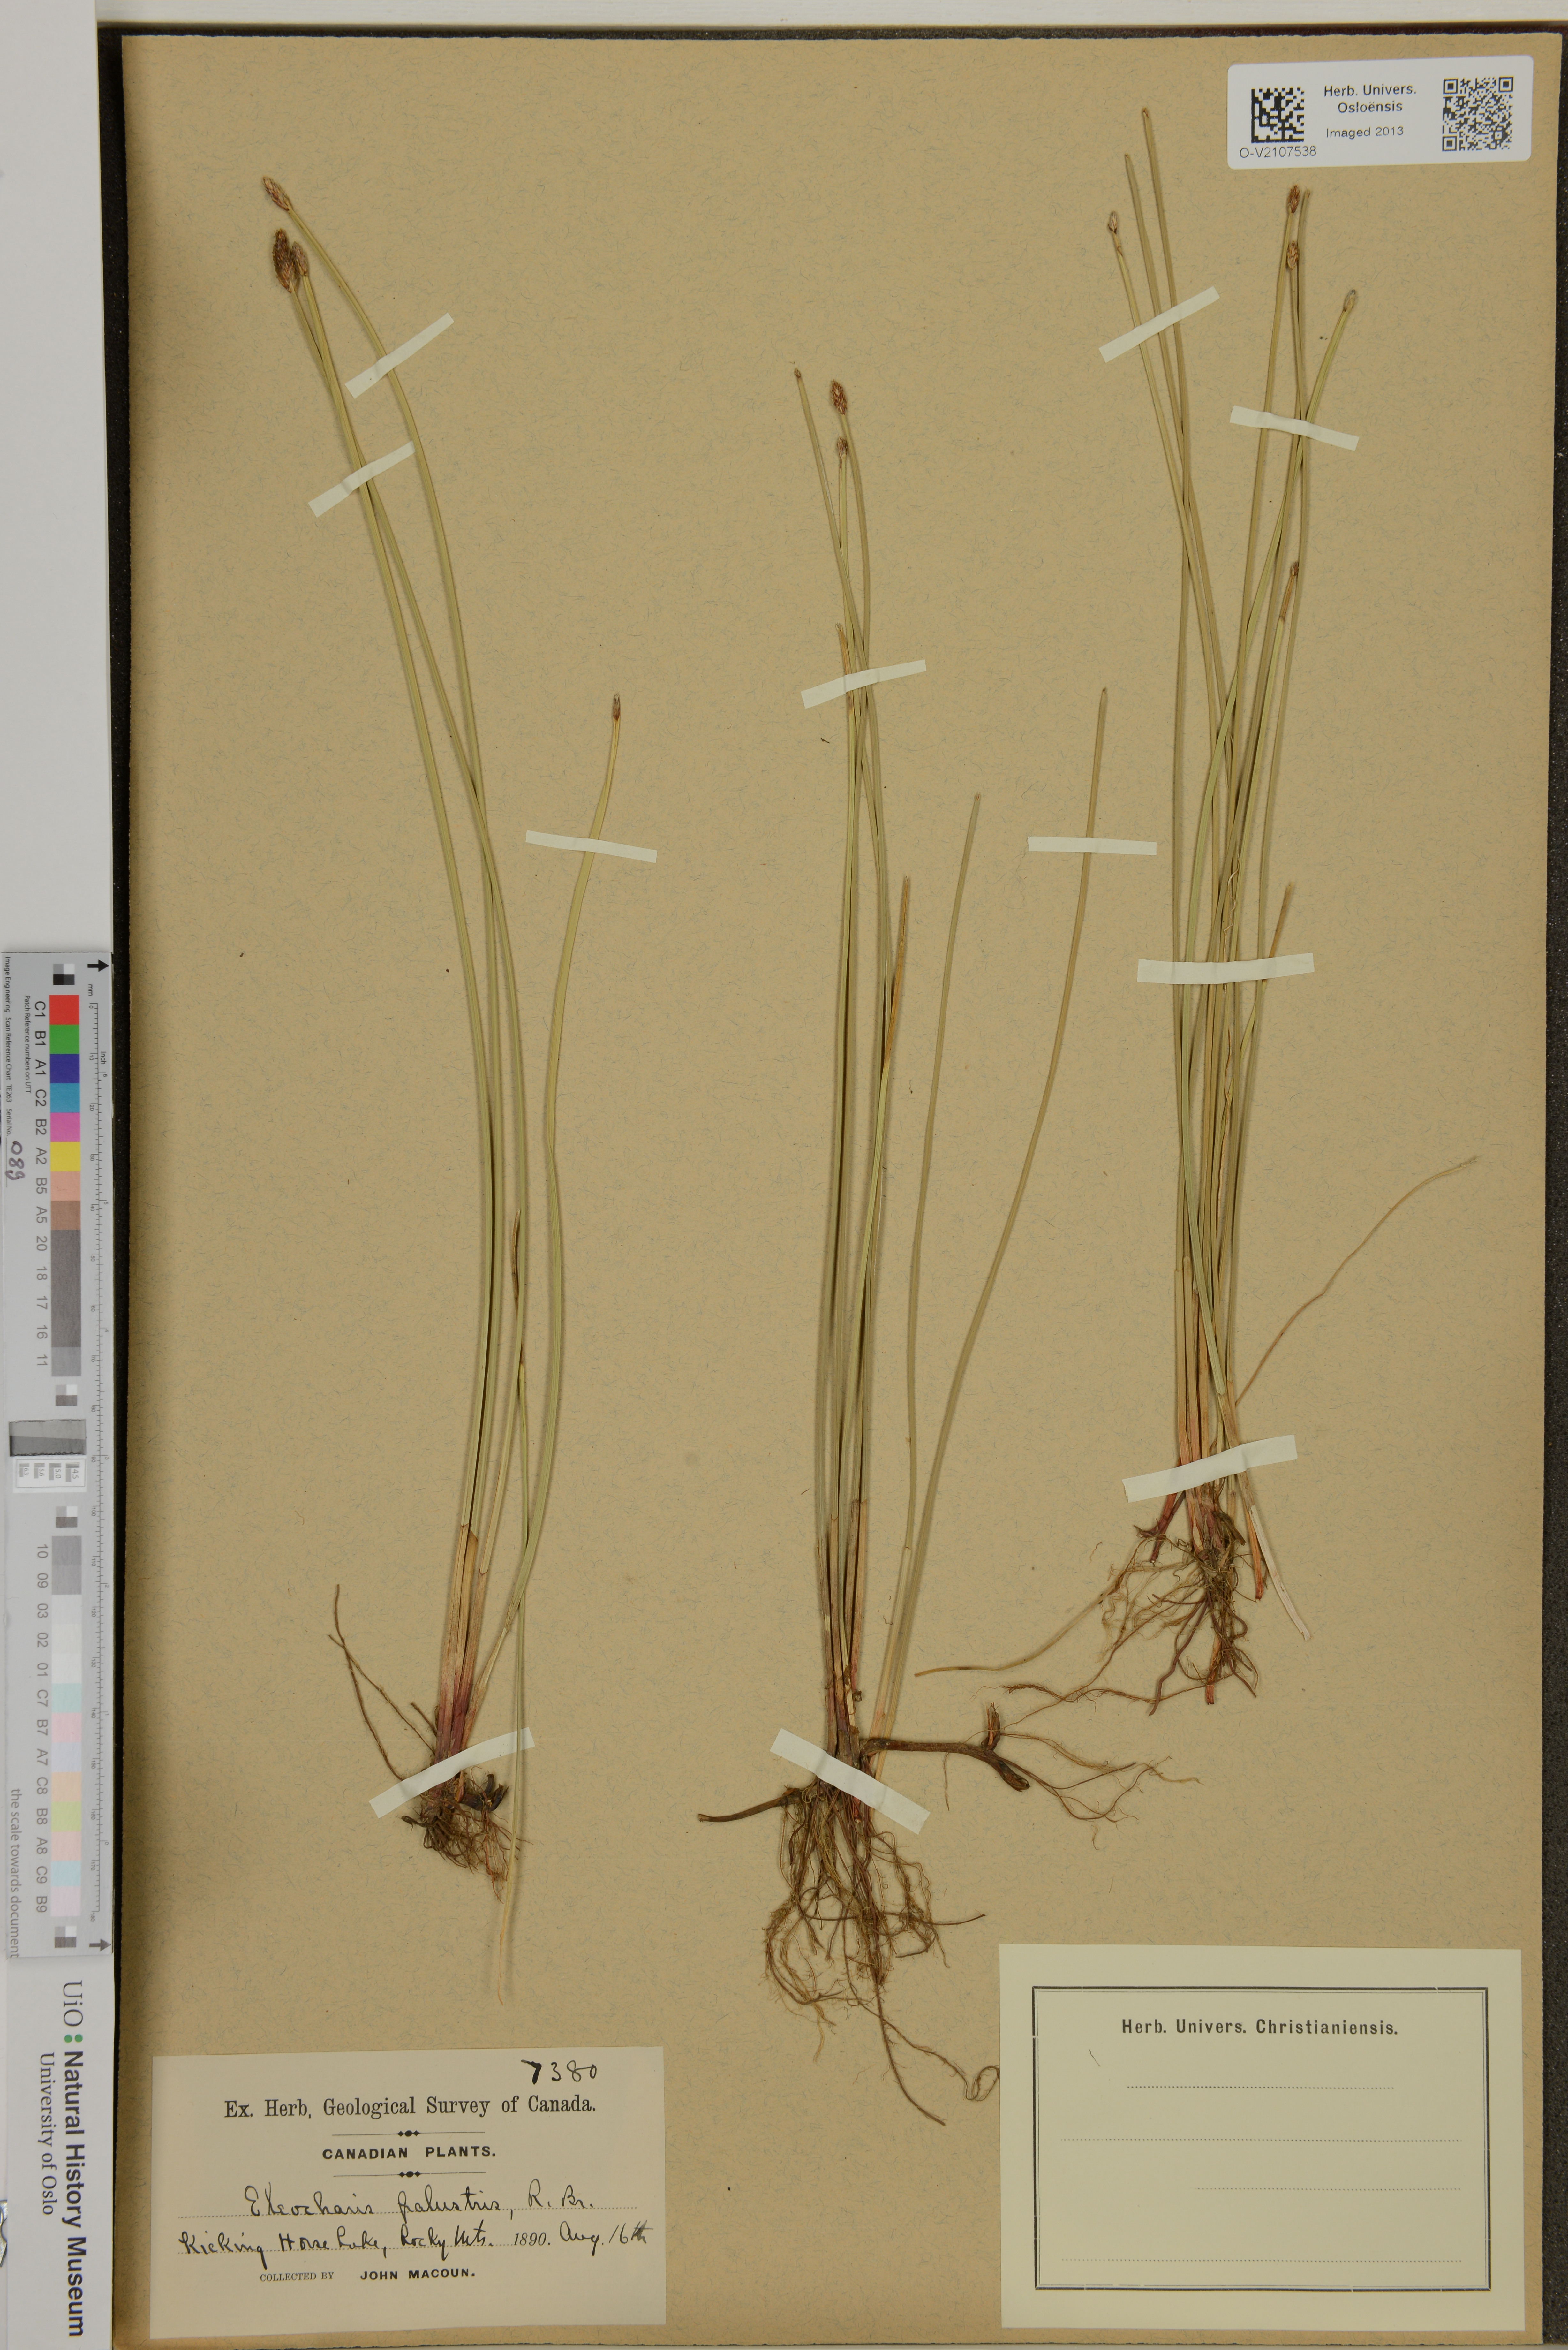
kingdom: Plantae
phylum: Tracheophyta
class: Liliopsida
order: Poales
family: Cyperaceae
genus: Eleocharis
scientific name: Eleocharis palustris
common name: Common spike-rush
